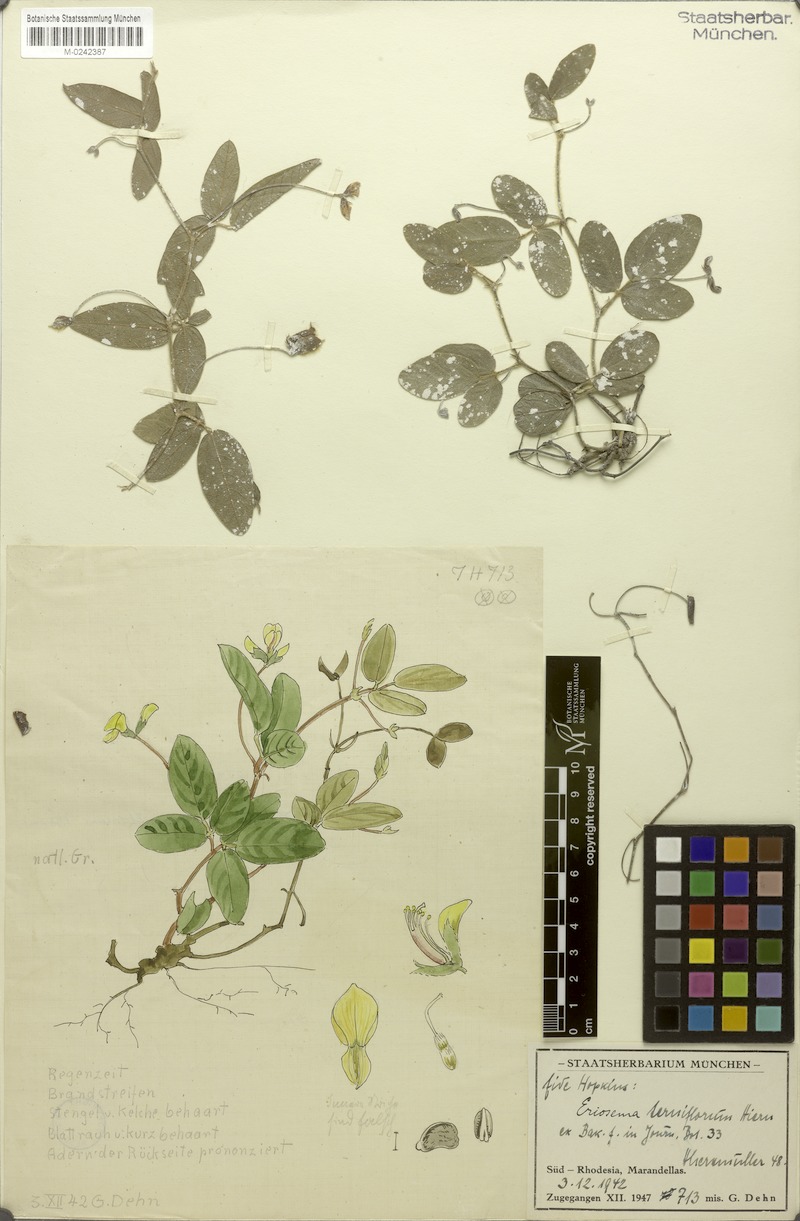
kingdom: Plantae
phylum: Tracheophyta
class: Magnoliopsida
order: Fabales
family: Fabaceae
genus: Eriosema
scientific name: Eriosema terniflorum
